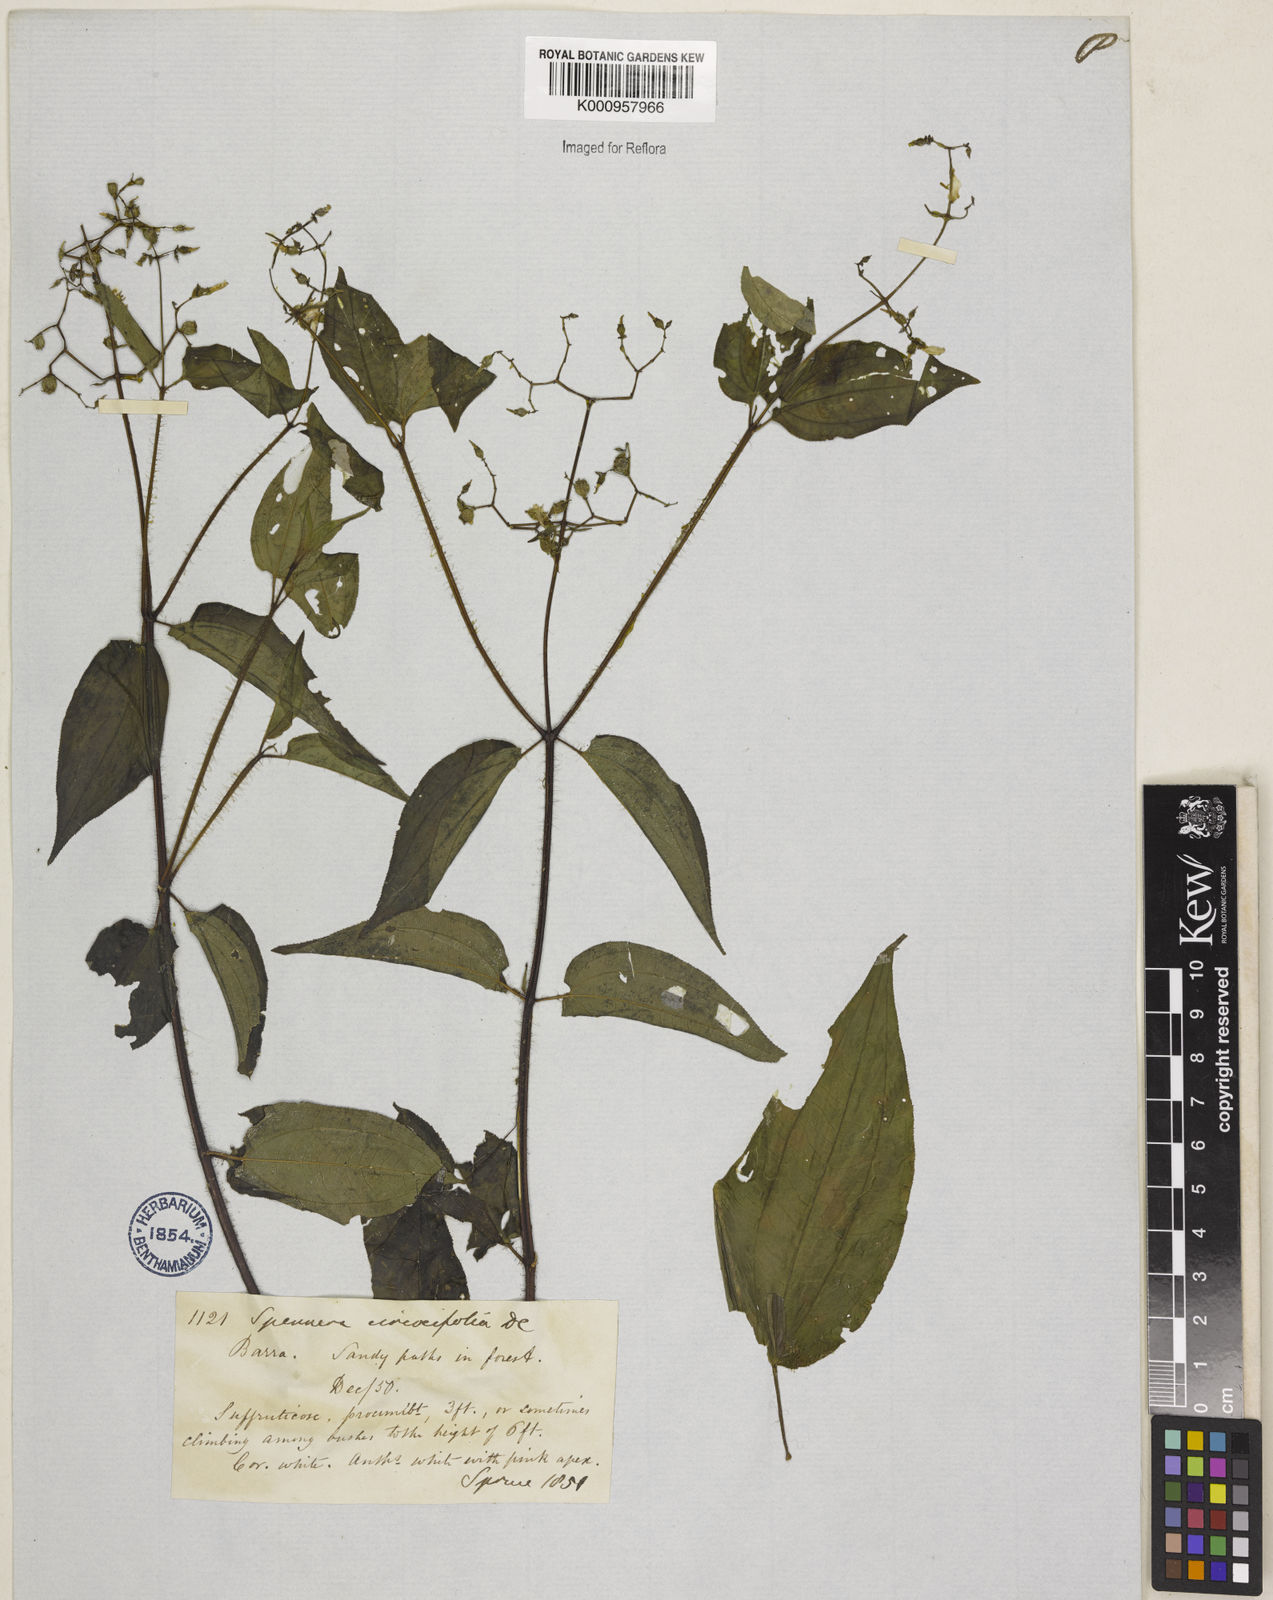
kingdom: Plantae
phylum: Tracheophyta
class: Magnoliopsida
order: Myrtales
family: Melastomataceae
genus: Aciotis
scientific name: Aciotis circaeifolia
